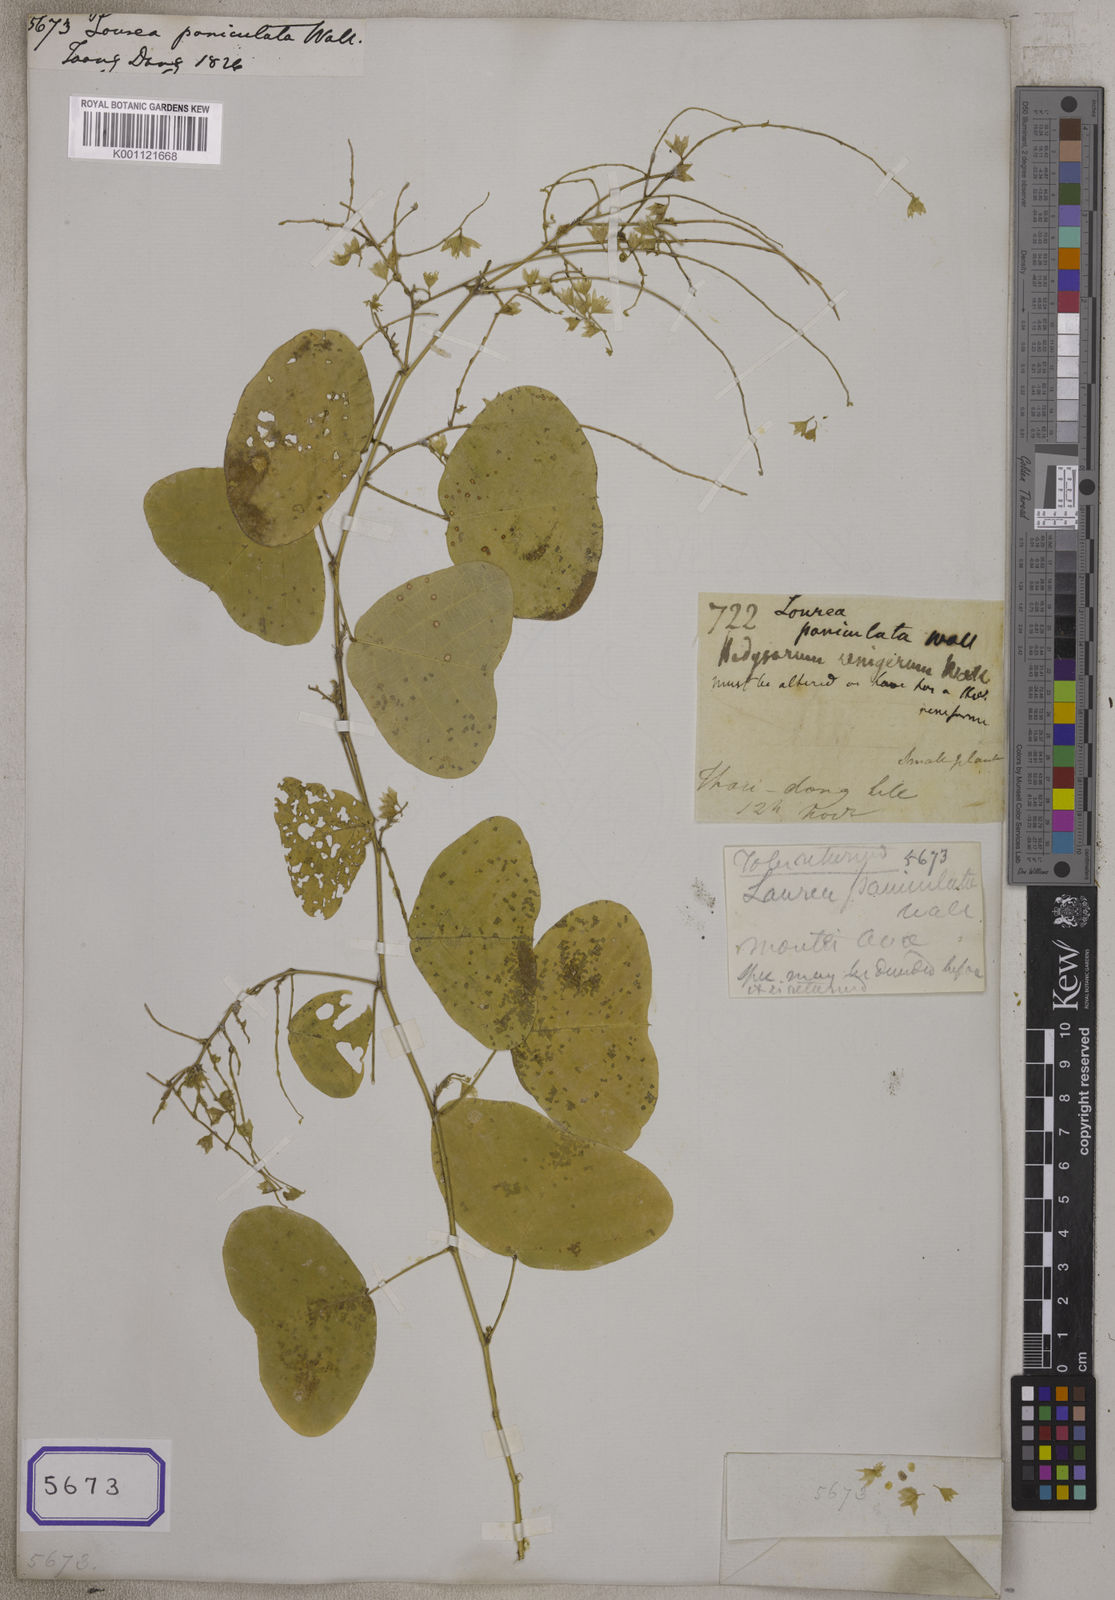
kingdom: Plantae
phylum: Tracheophyta
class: Magnoliopsida
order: Fabales
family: Fabaceae
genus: Lourea
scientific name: Lourea
